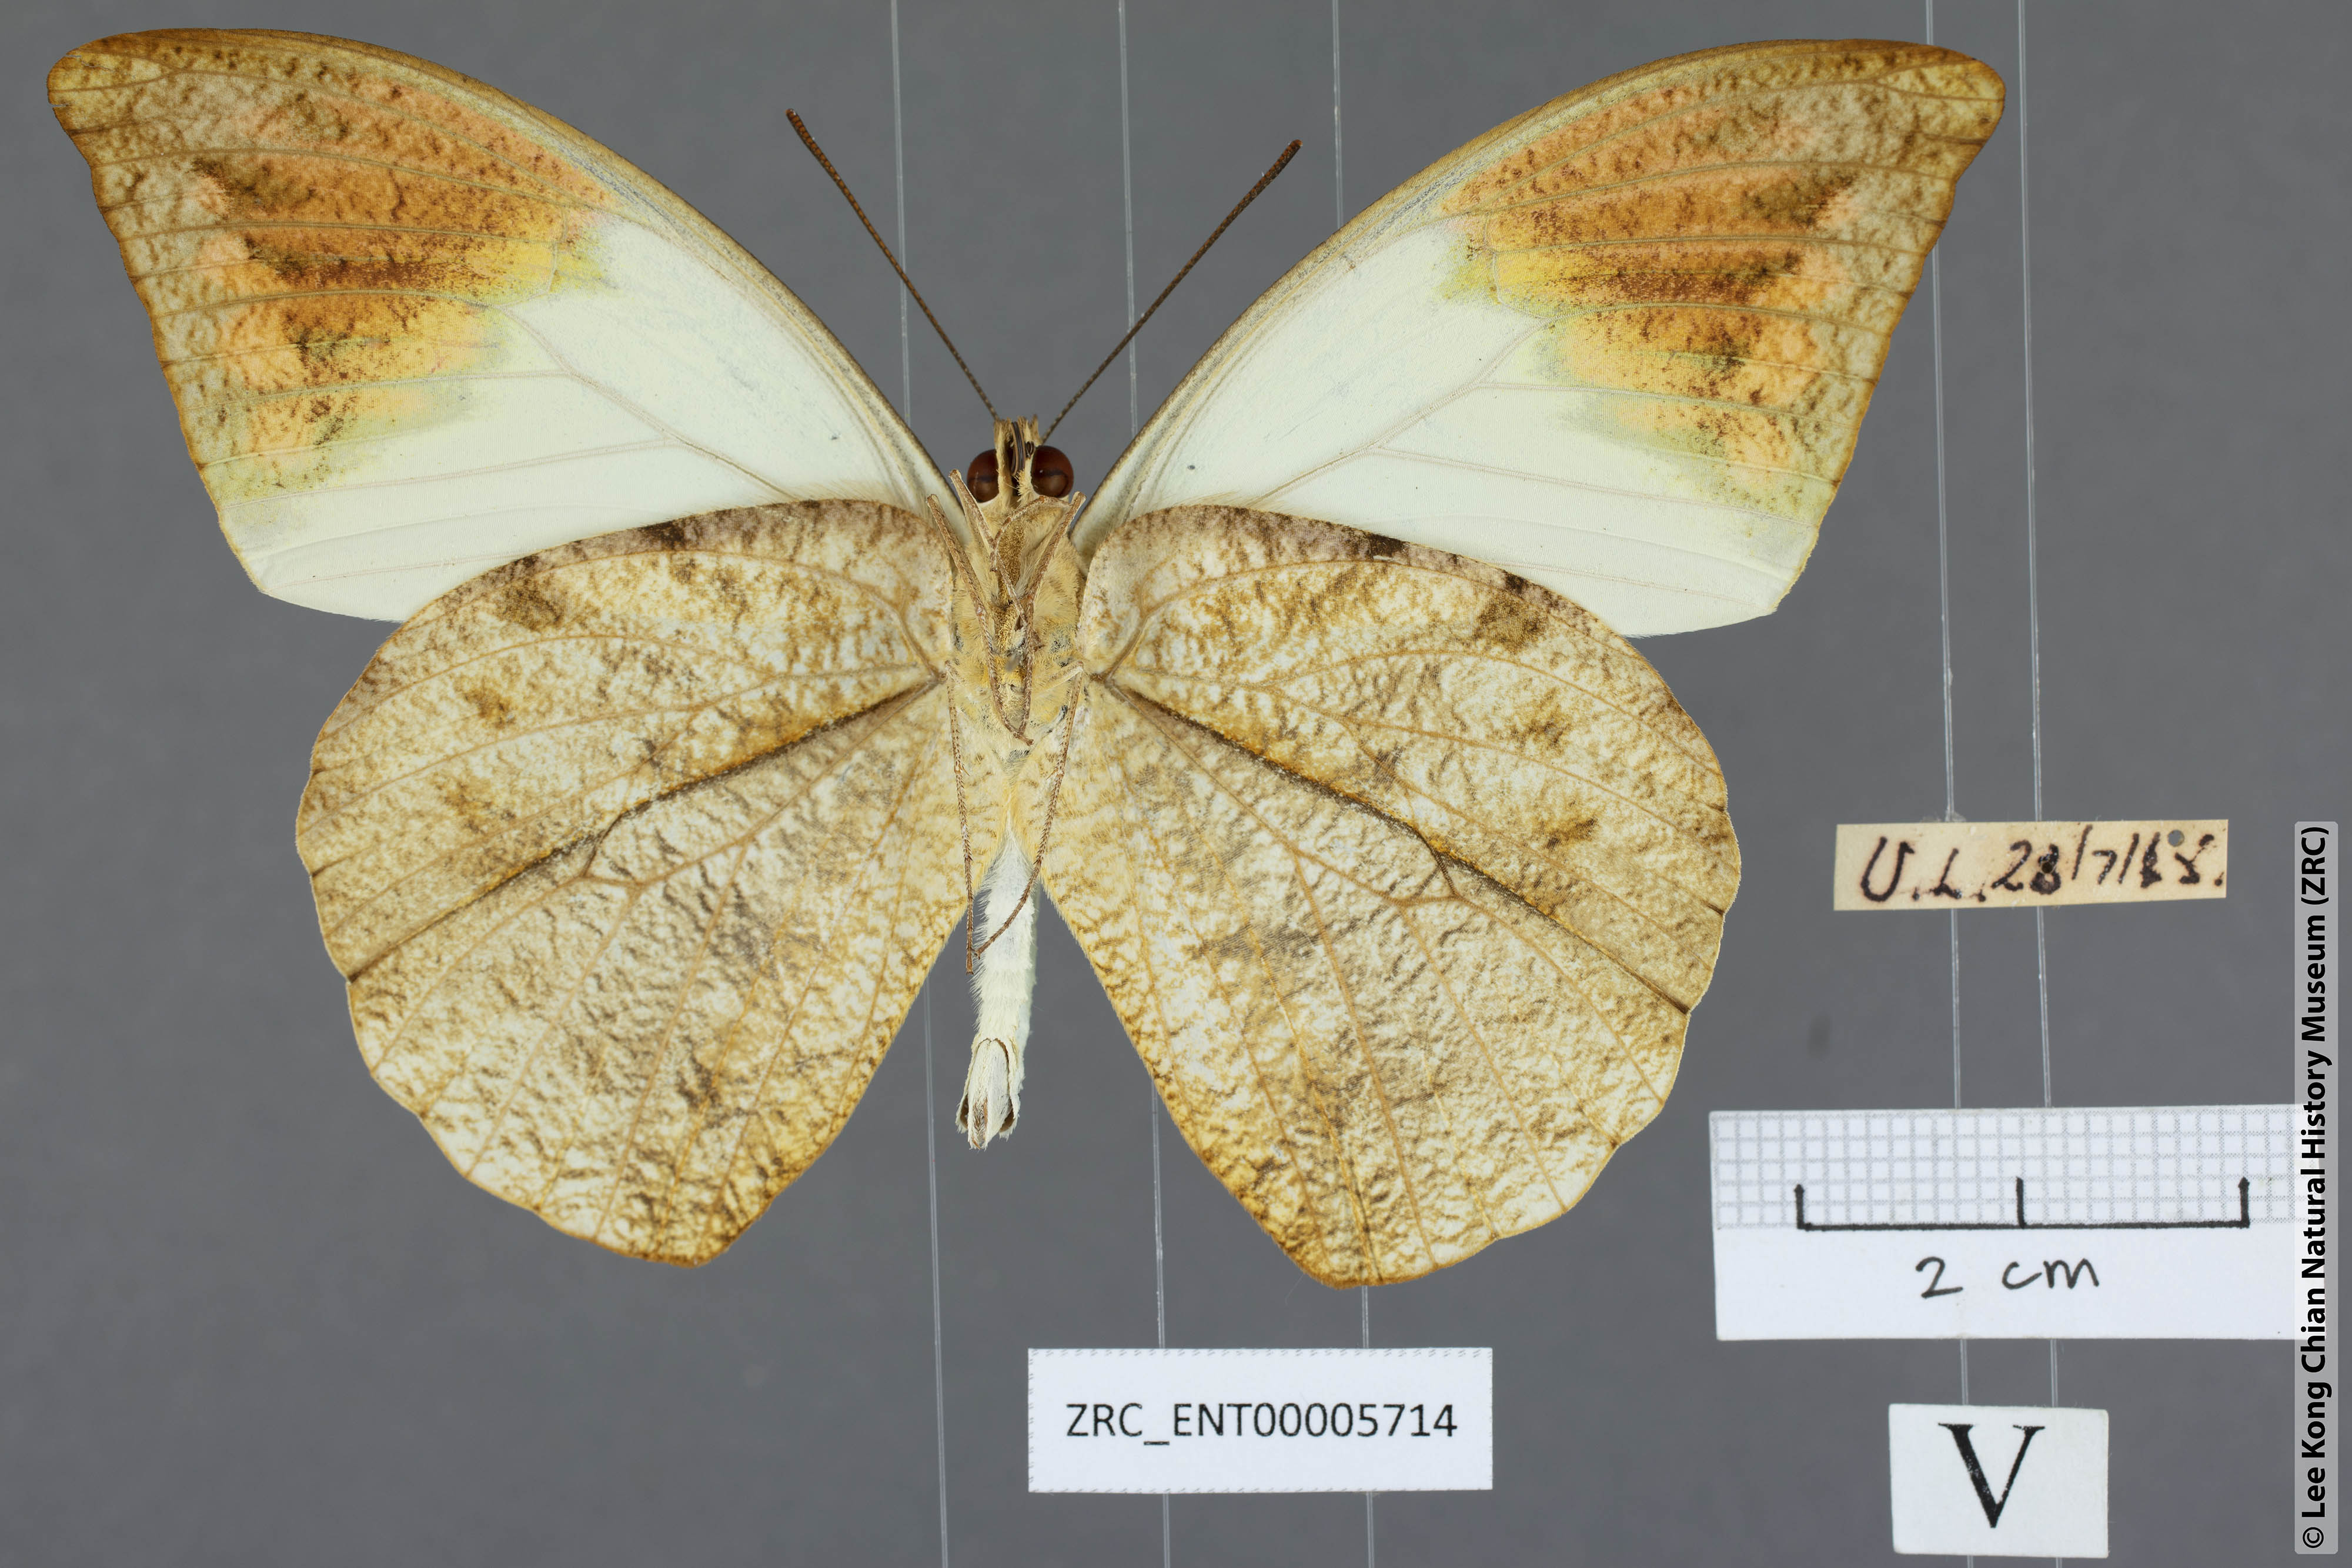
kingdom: Animalia
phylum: Arthropoda
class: Insecta
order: Lepidoptera
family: Pieridae
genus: Hebomoia
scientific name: Hebomoia glaucippe
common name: Great orange tip
